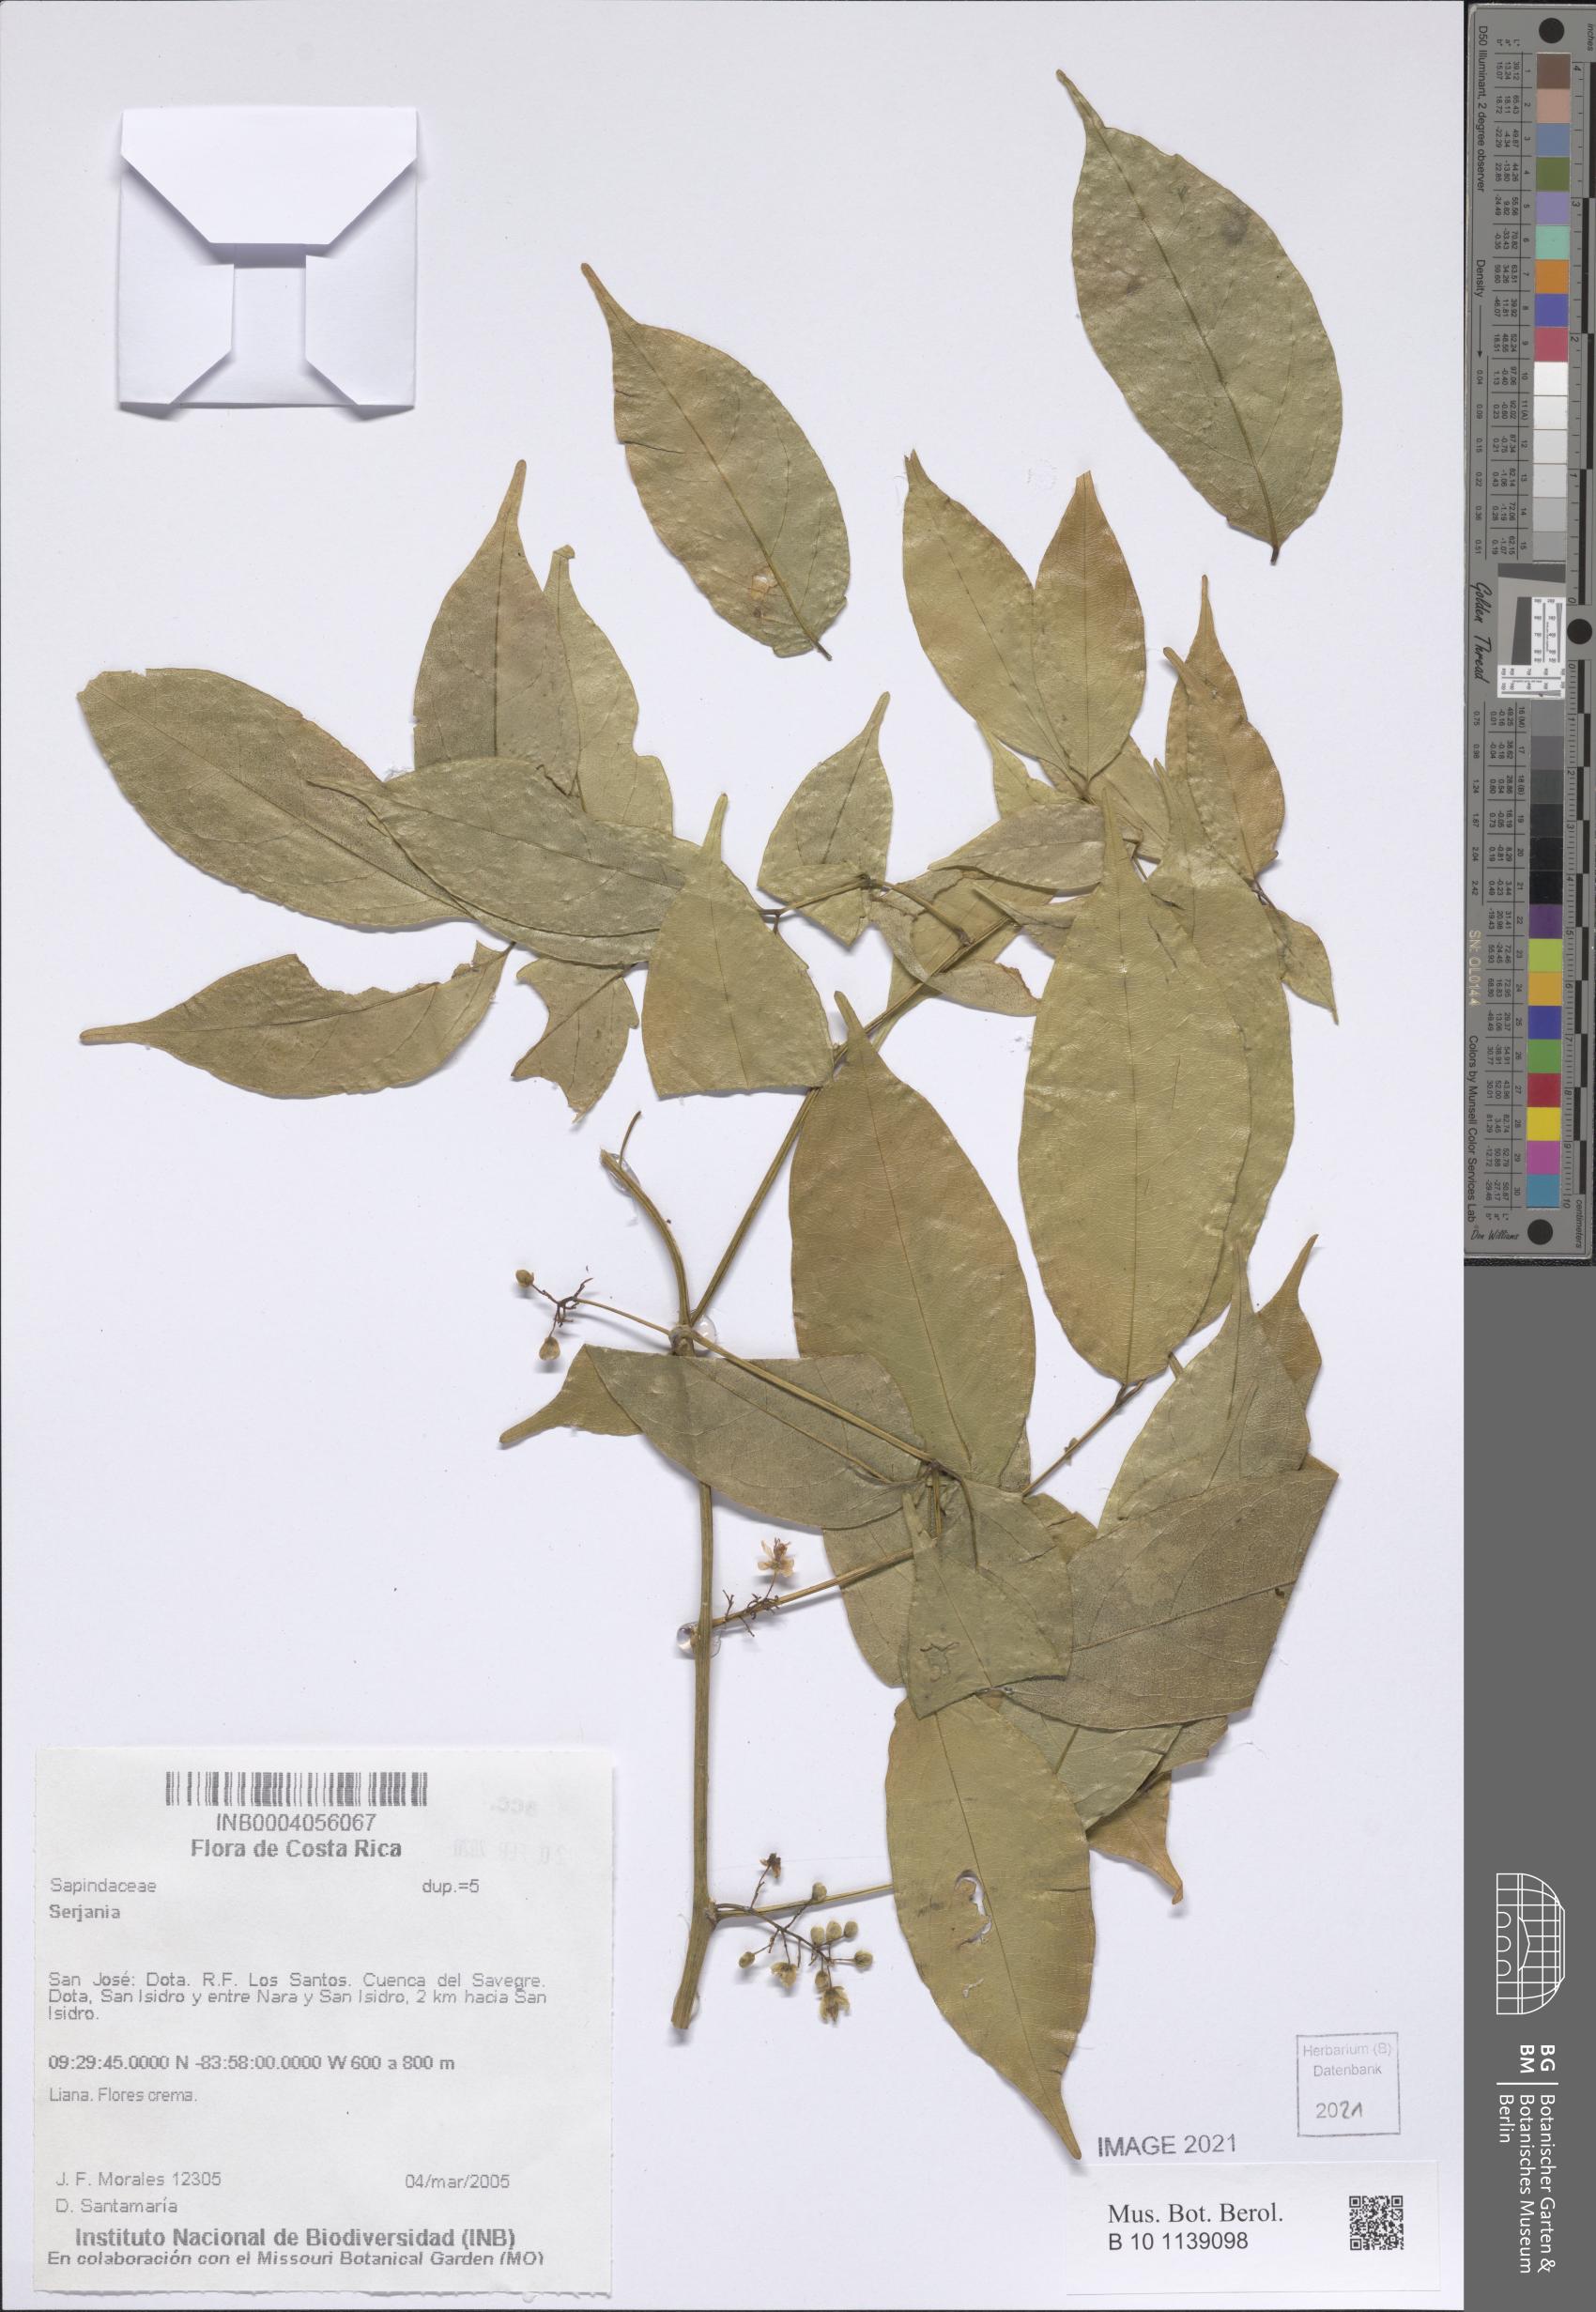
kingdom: Plantae
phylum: Tracheophyta
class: Magnoliopsida
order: Sapindales
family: Sapindaceae
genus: Serjania
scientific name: Serjania
